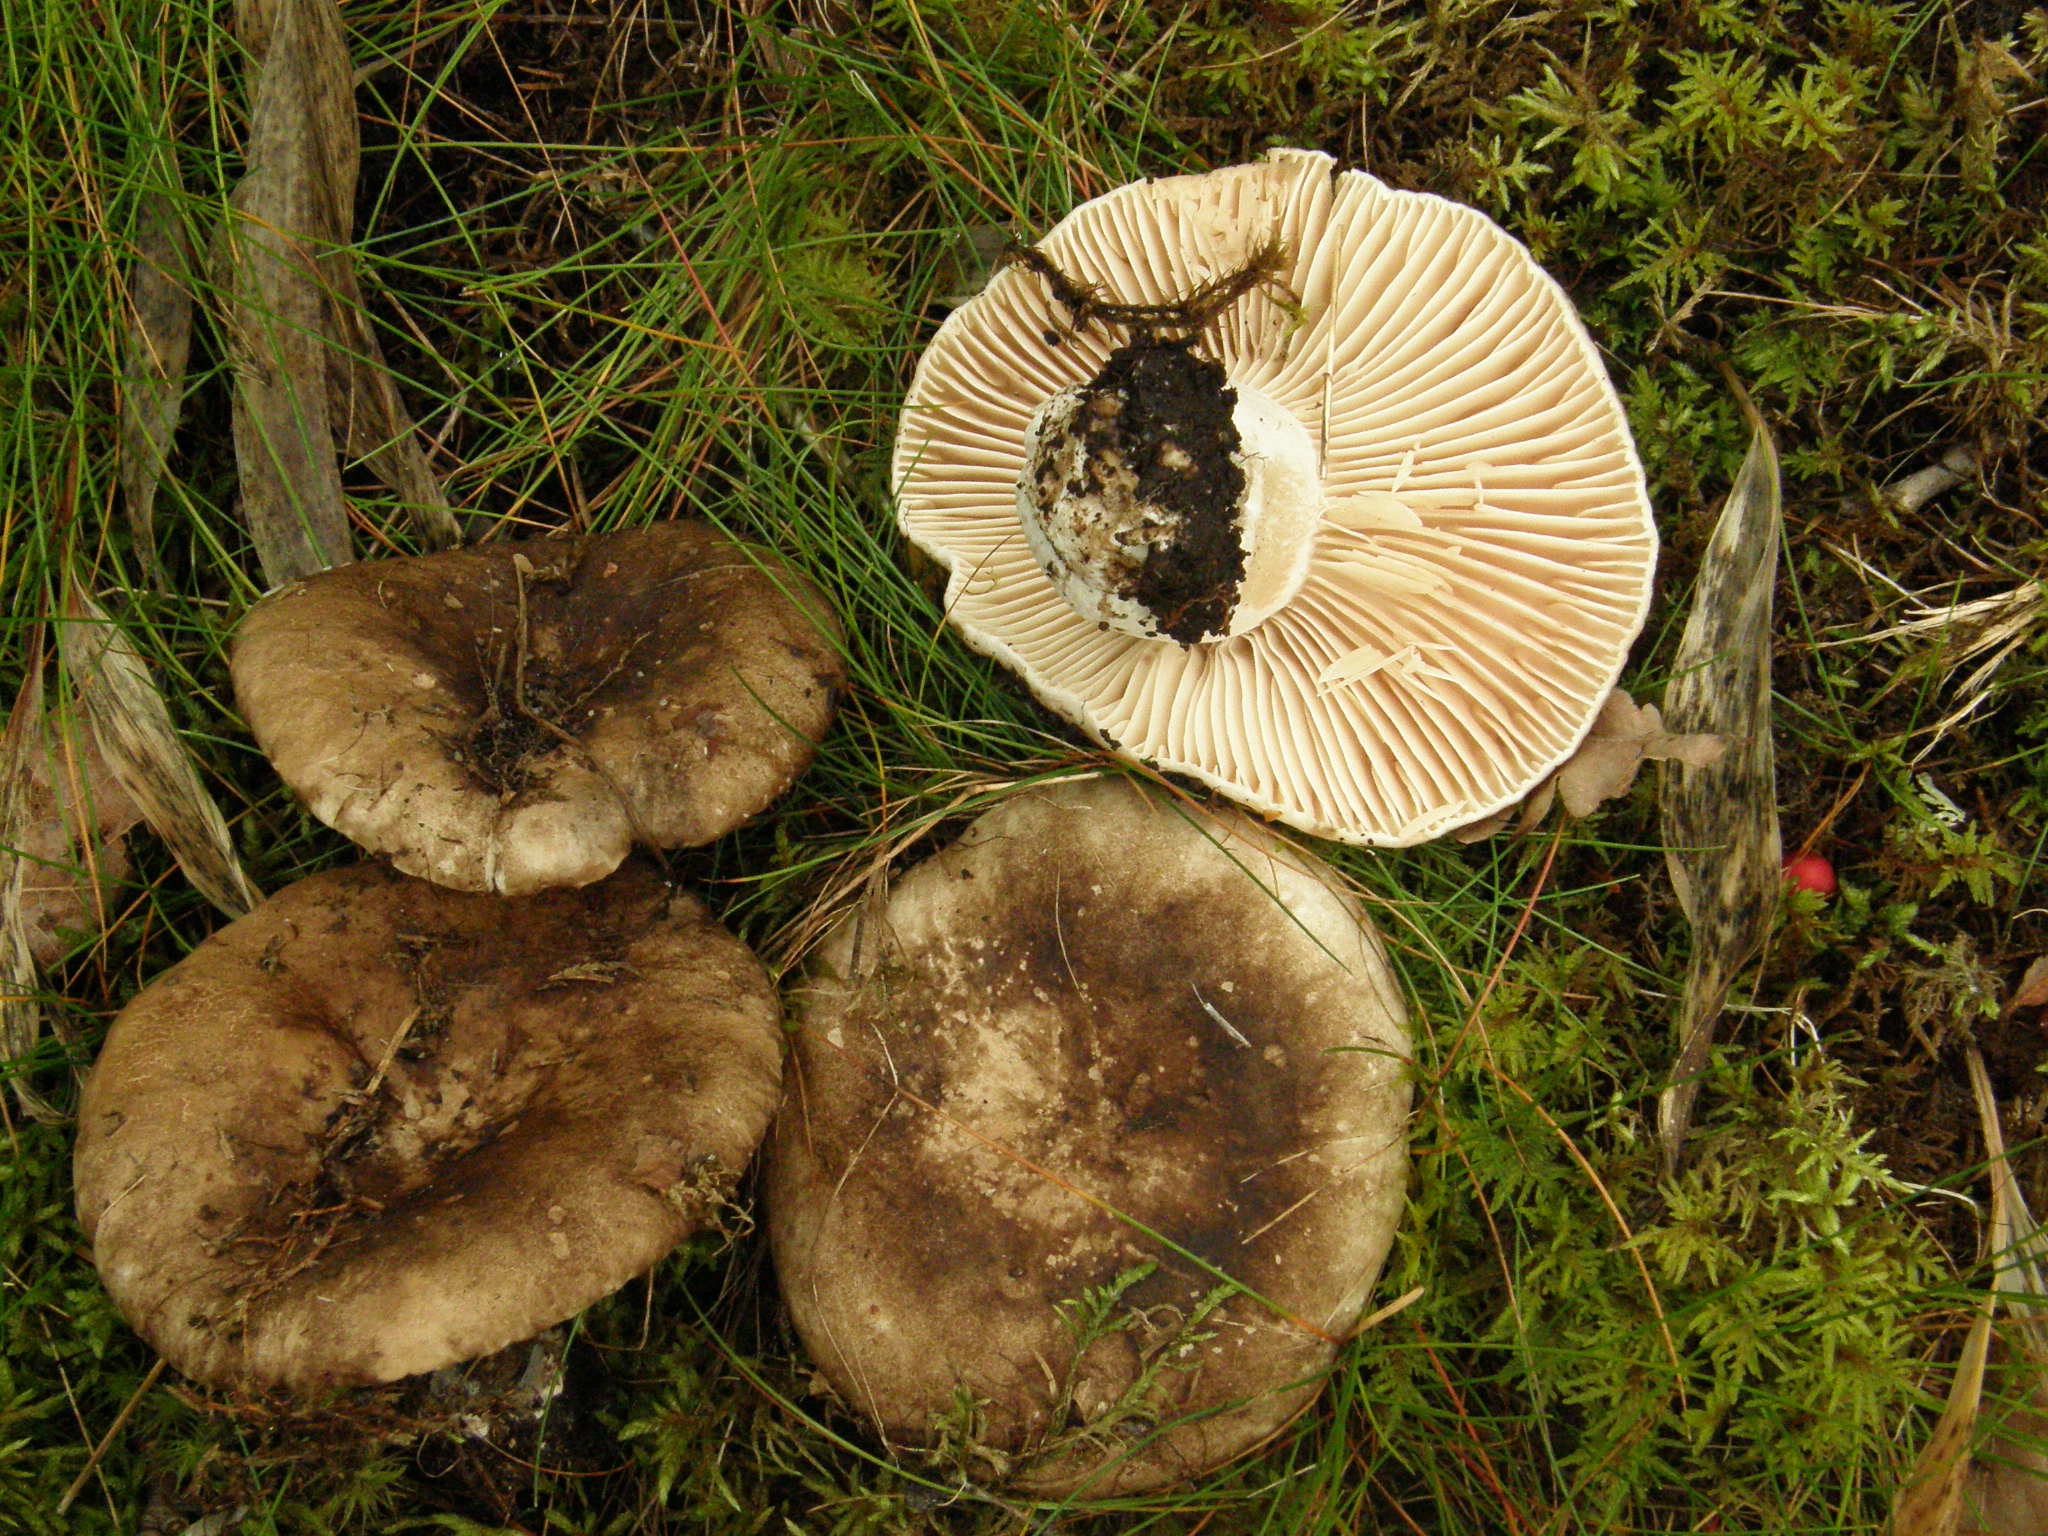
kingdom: Fungi
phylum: Basidiomycota
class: Agaricomycetes
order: Russulales
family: Russulaceae
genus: Russula
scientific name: Russula adusta
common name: Winecork brittlegill
